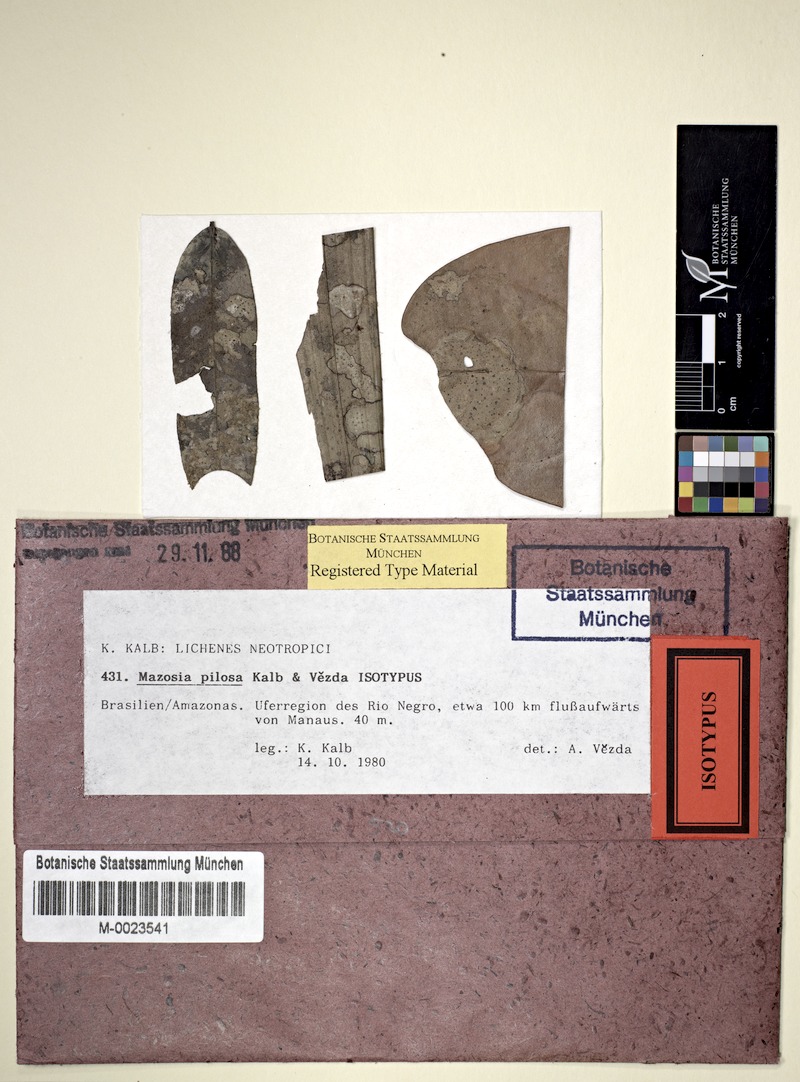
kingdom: Fungi
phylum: Ascomycota
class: Arthoniomycetes
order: Arthoniales
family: Roccellaceae
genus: Mazosia
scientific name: Mazosia pilosa
